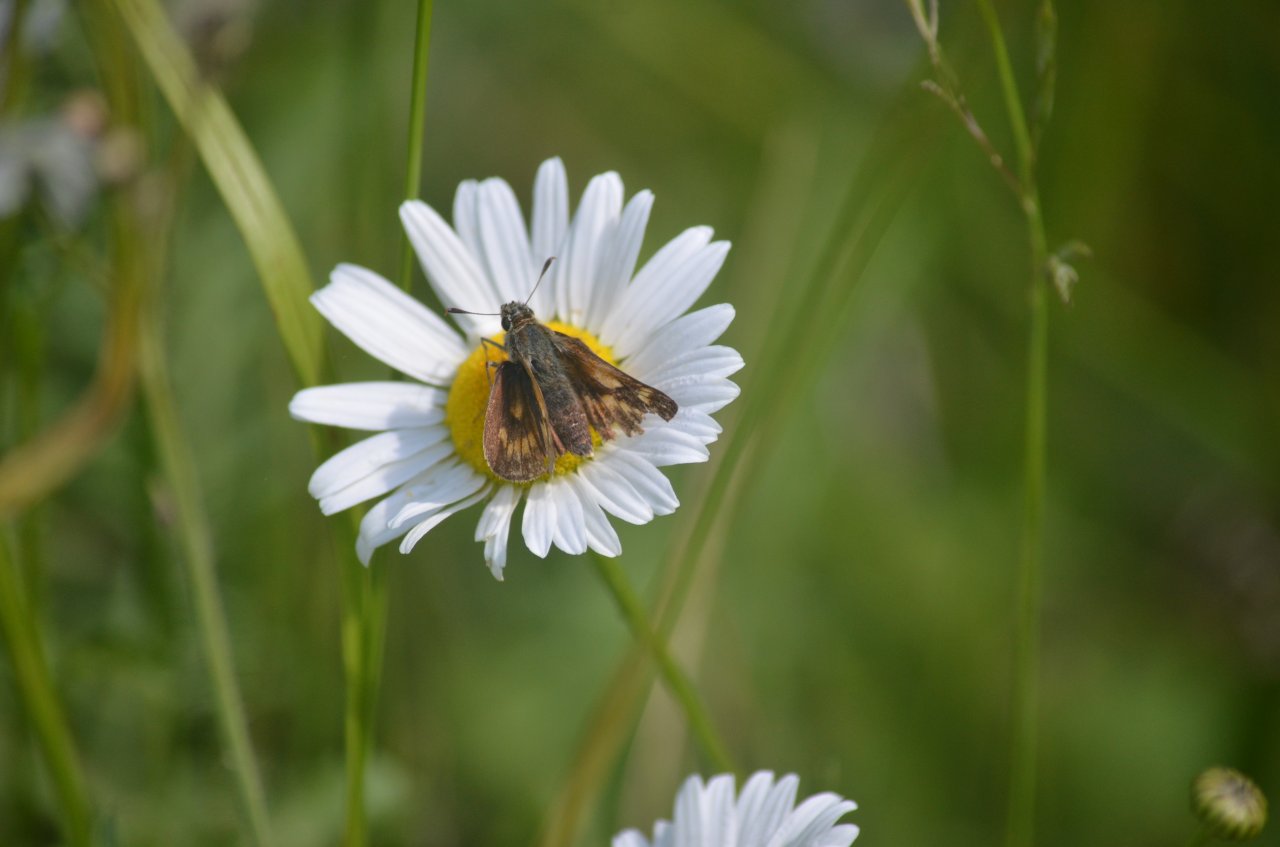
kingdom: Animalia
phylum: Arthropoda
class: Insecta
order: Lepidoptera
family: Hesperiidae
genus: Polites
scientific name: Polites
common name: Long Dash Skipper
